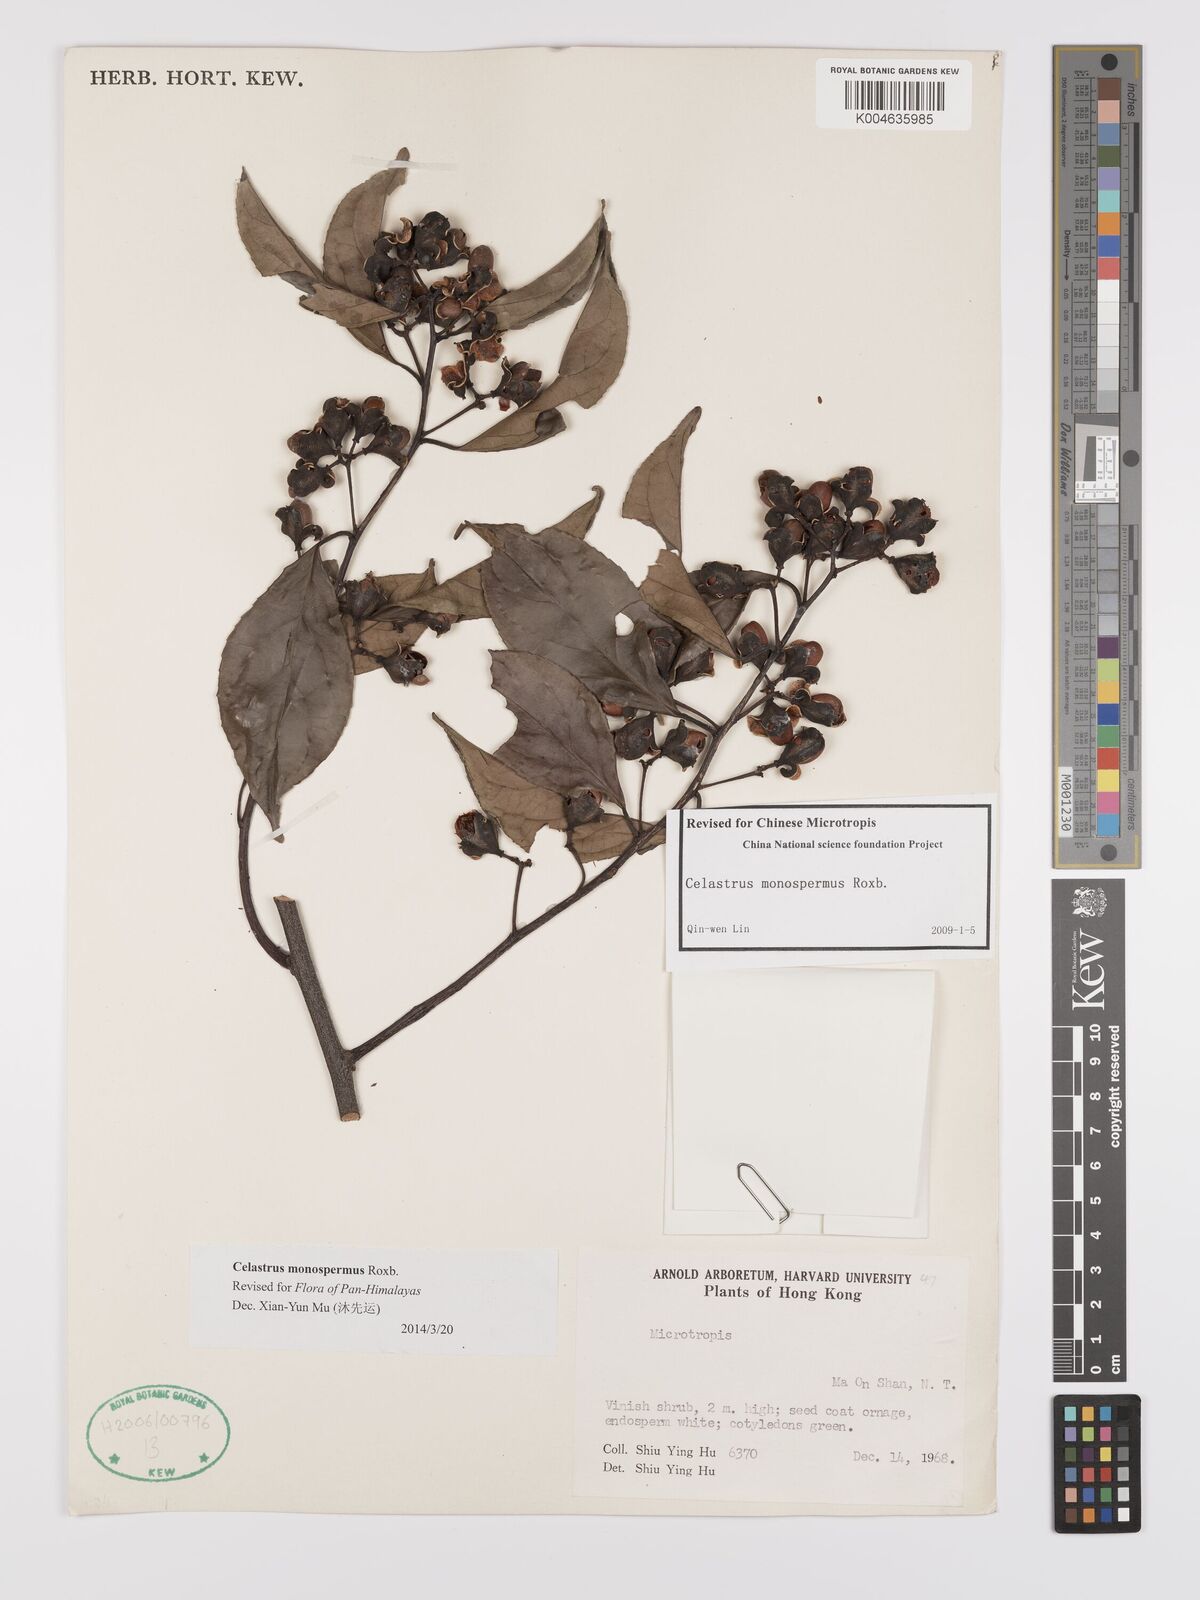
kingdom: Plantae
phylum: Tracheophyta
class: Magnoliopsida
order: Celastrales
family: Celastraceae
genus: Celastrus
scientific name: Celastrus monospermus
